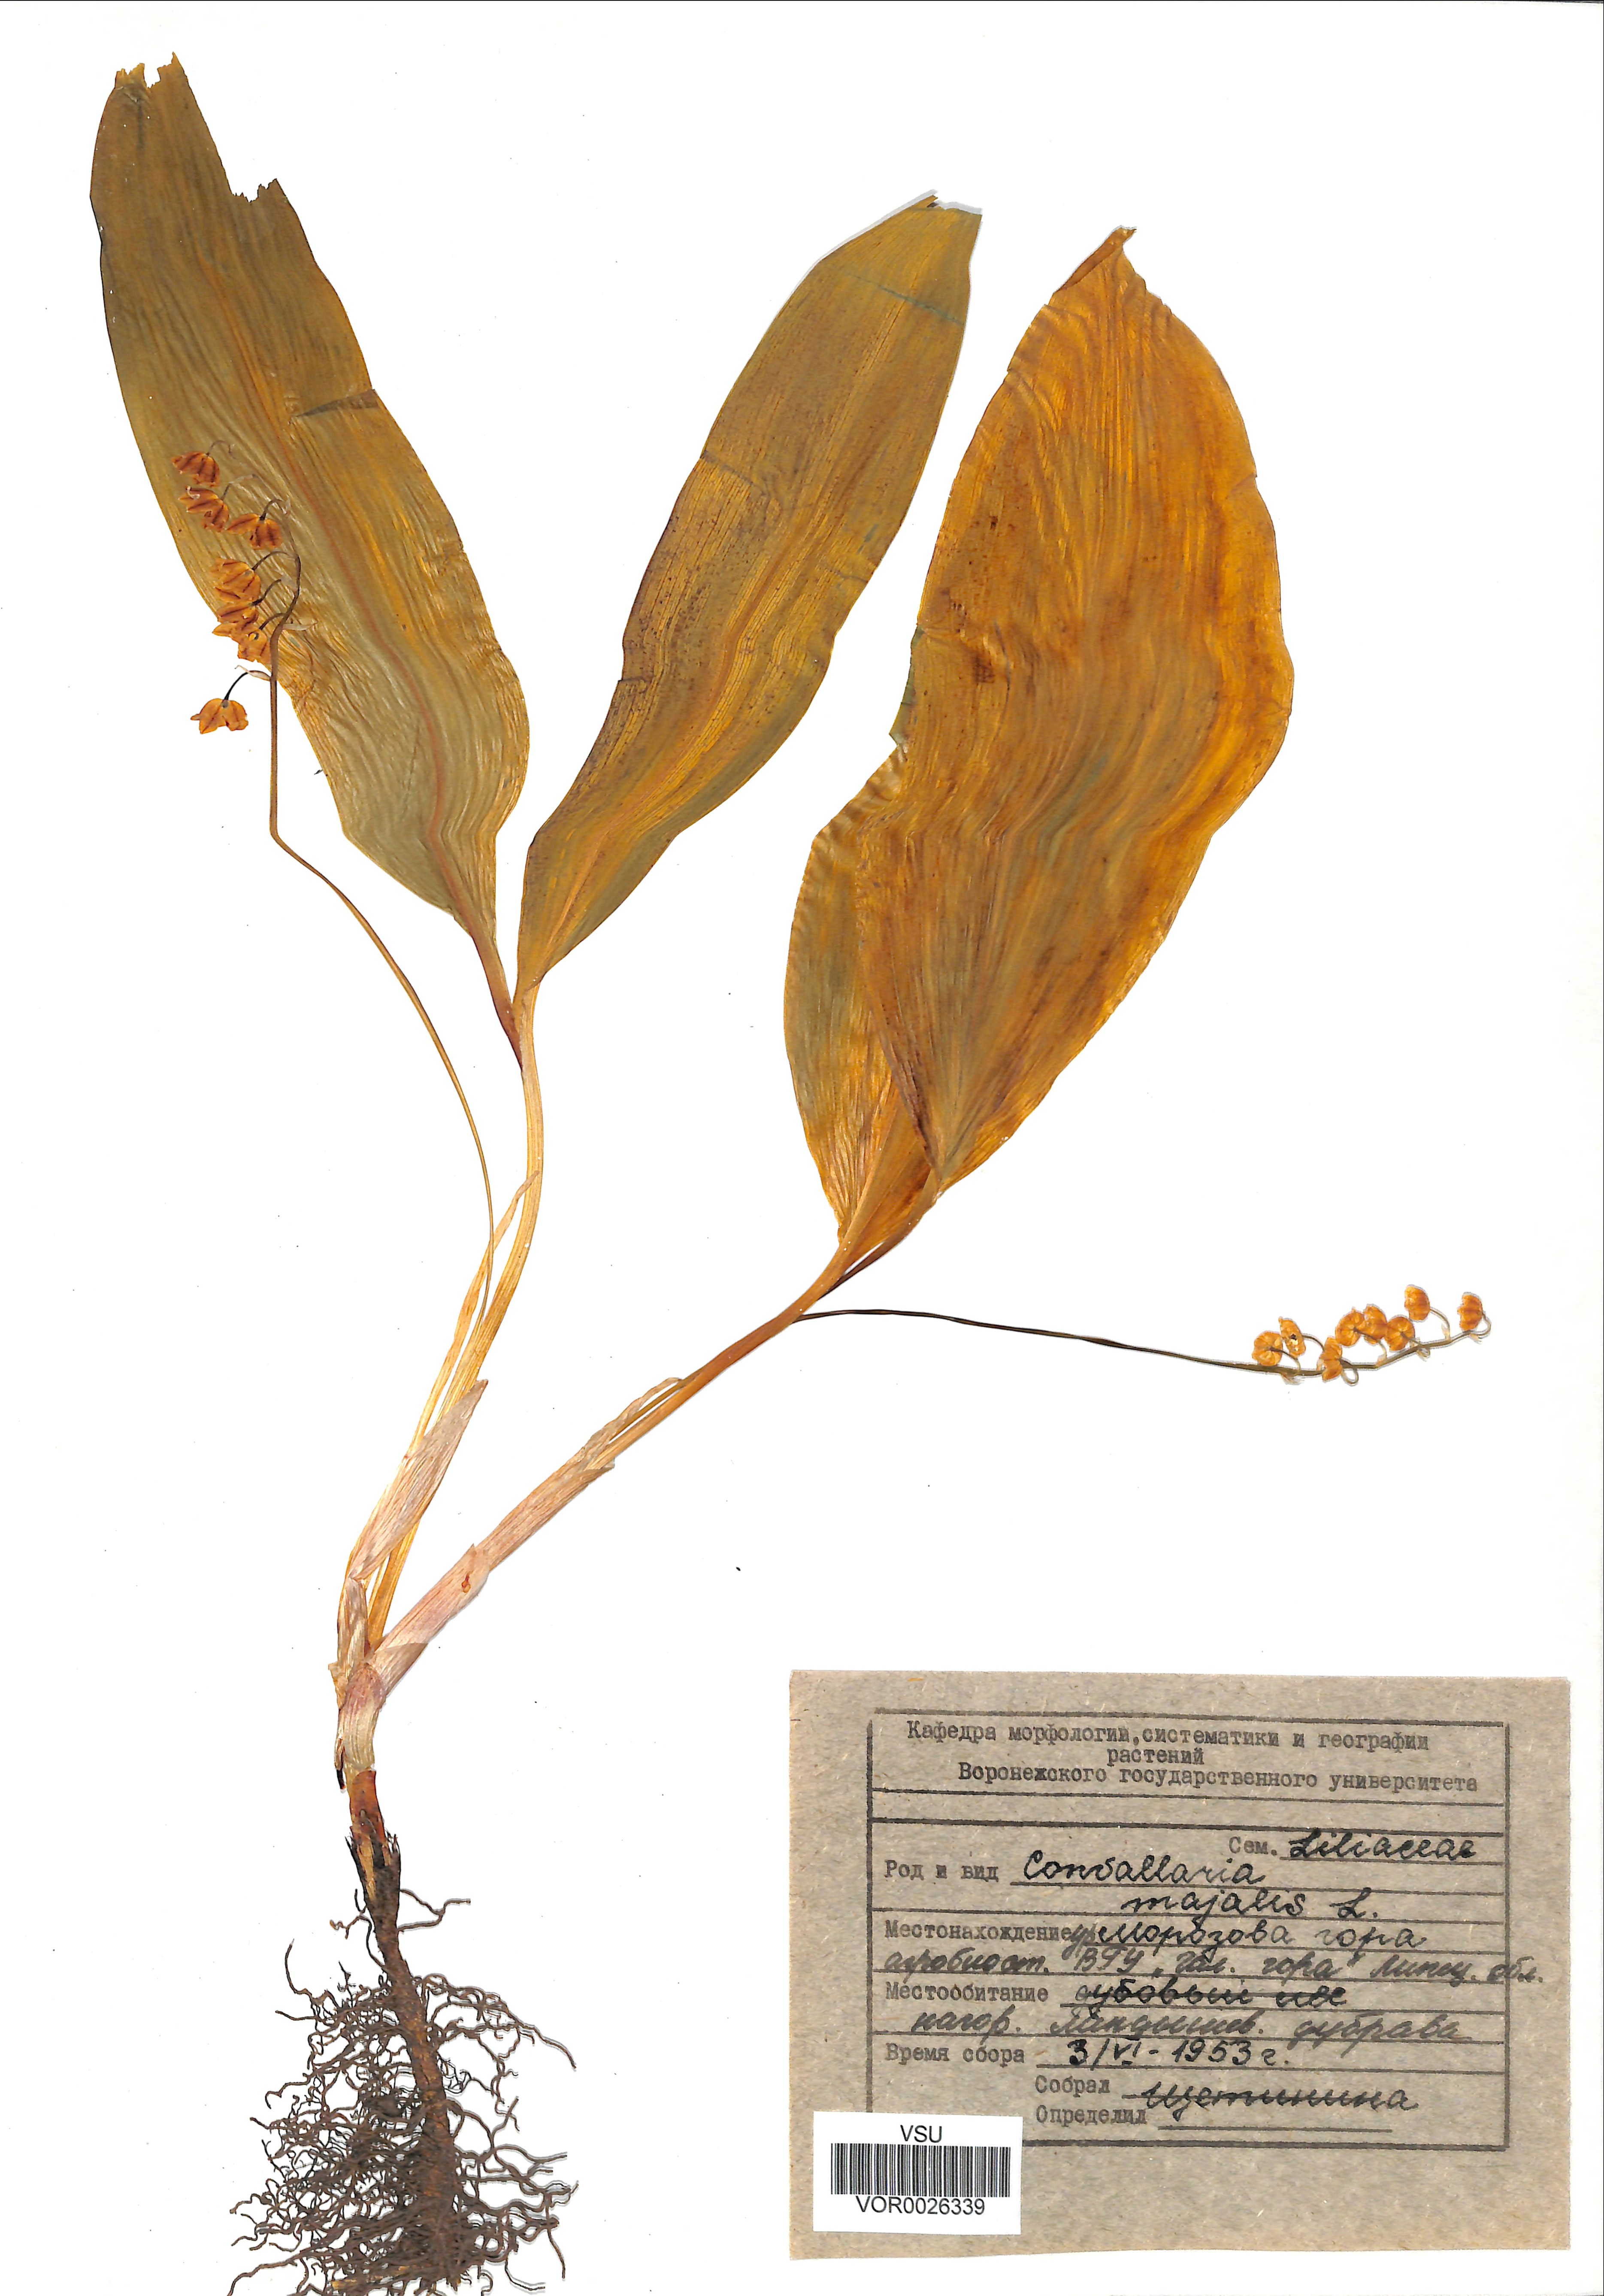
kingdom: Plantae
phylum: Tracheophyta
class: Liliopsida
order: Asparagales
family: Asparagaceae
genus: Convallaria
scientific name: Convallaria majalis
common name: Lily-of-the-valley
